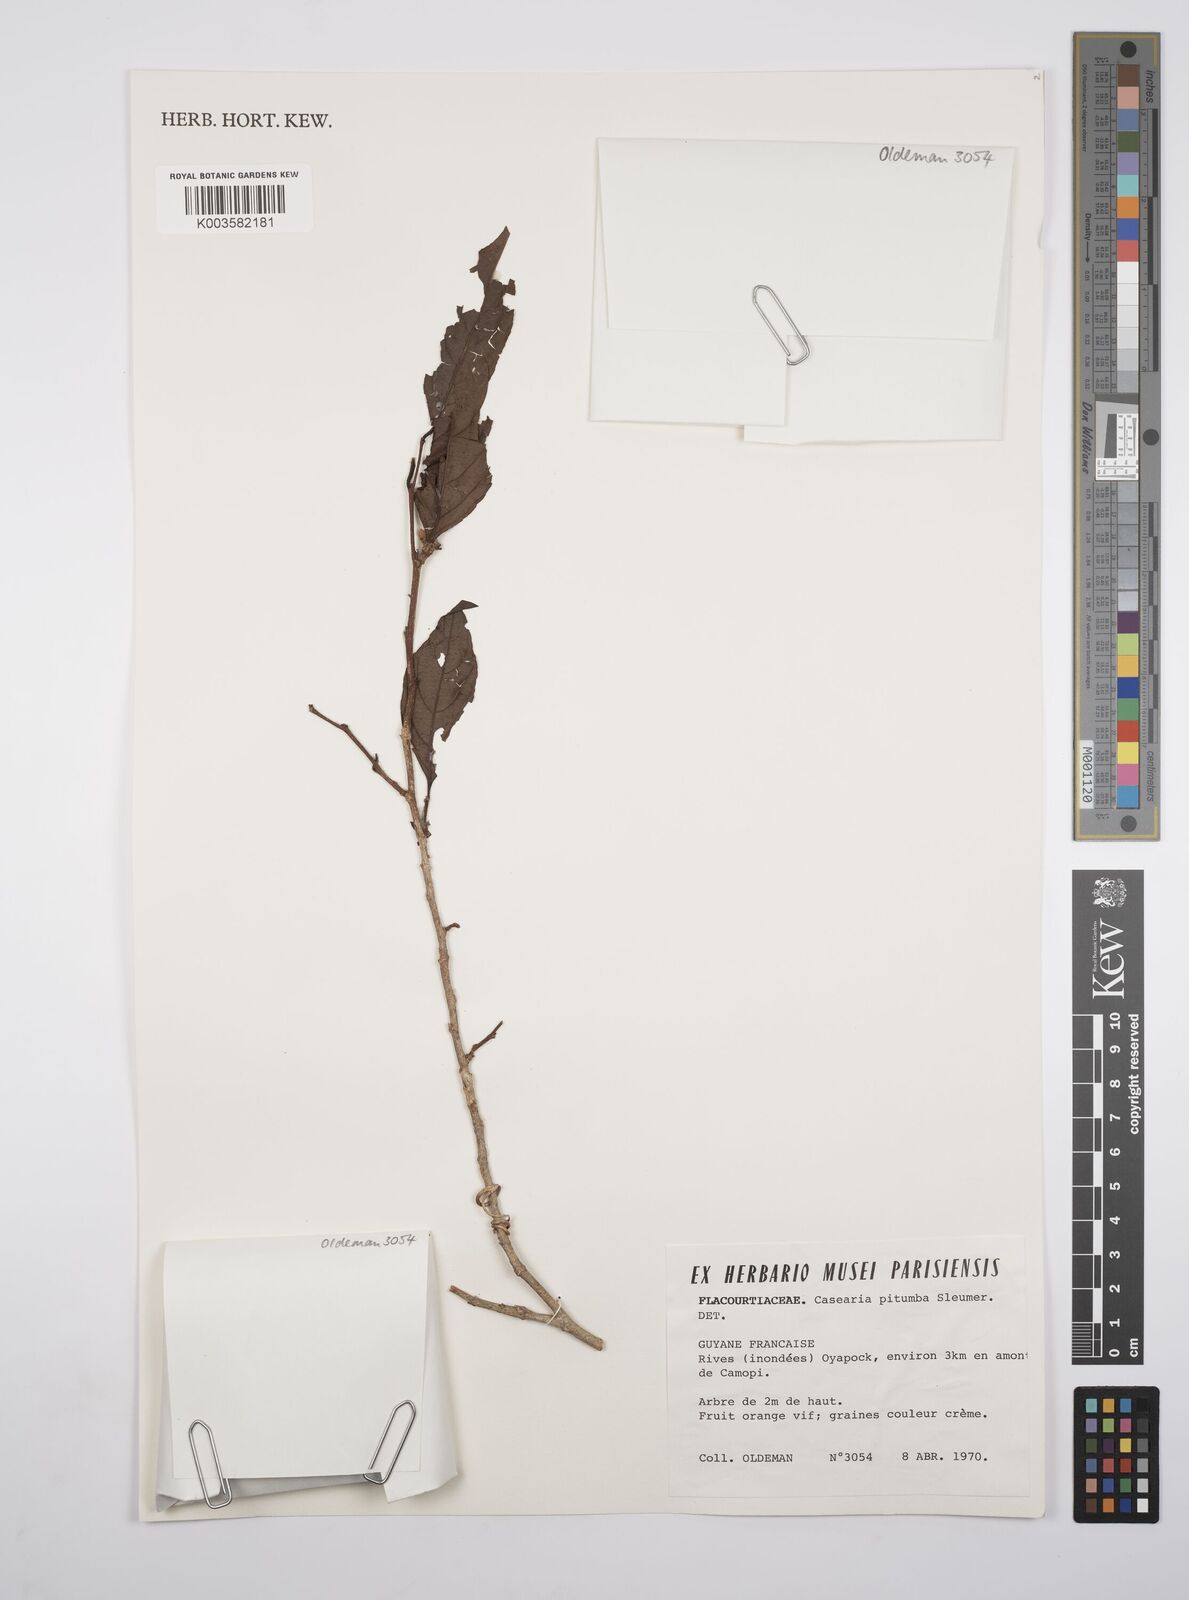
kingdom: Plantae
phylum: Tracheophyta
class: Magnoliopsida
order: Malpighiales
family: Salicaceae
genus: Casearia
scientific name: Casearia pitumba
